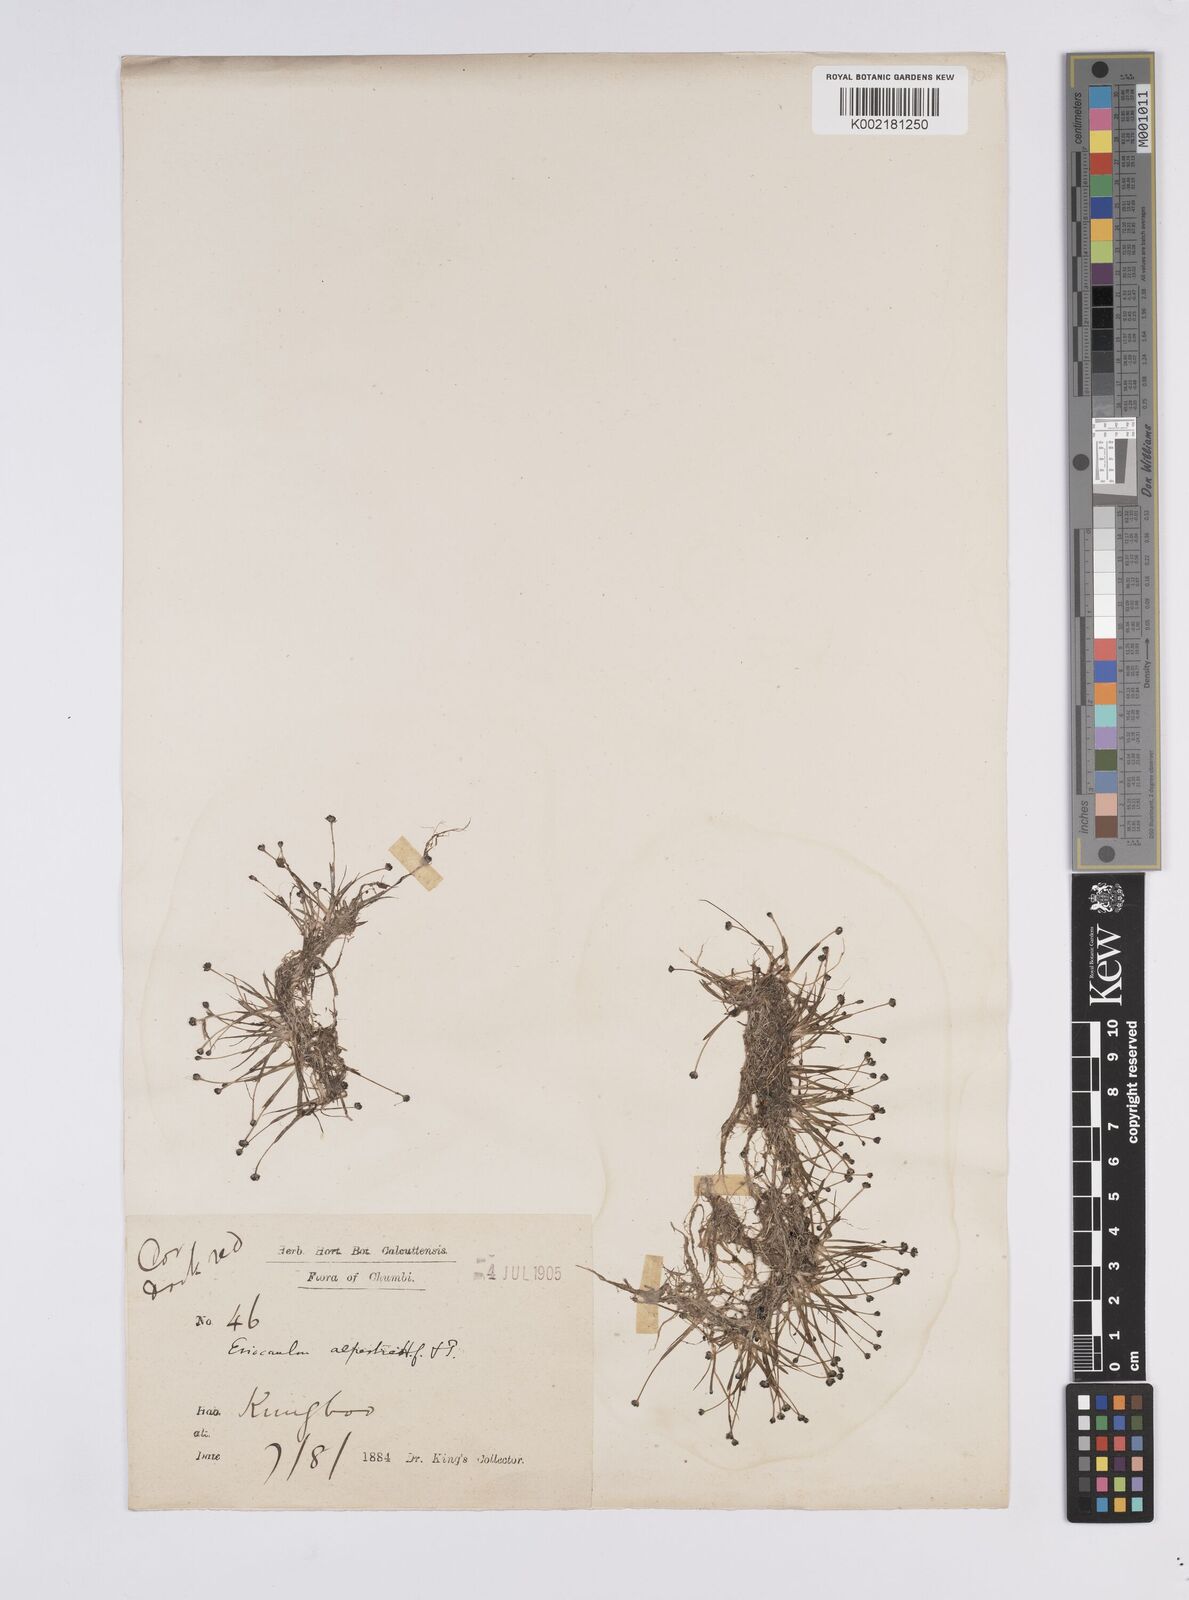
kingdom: Plantae
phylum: Tracheophyta
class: Liliopsida
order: Poales
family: Eriocaulaceae
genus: Eriocaulon
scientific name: Eriocaulon alpestre
